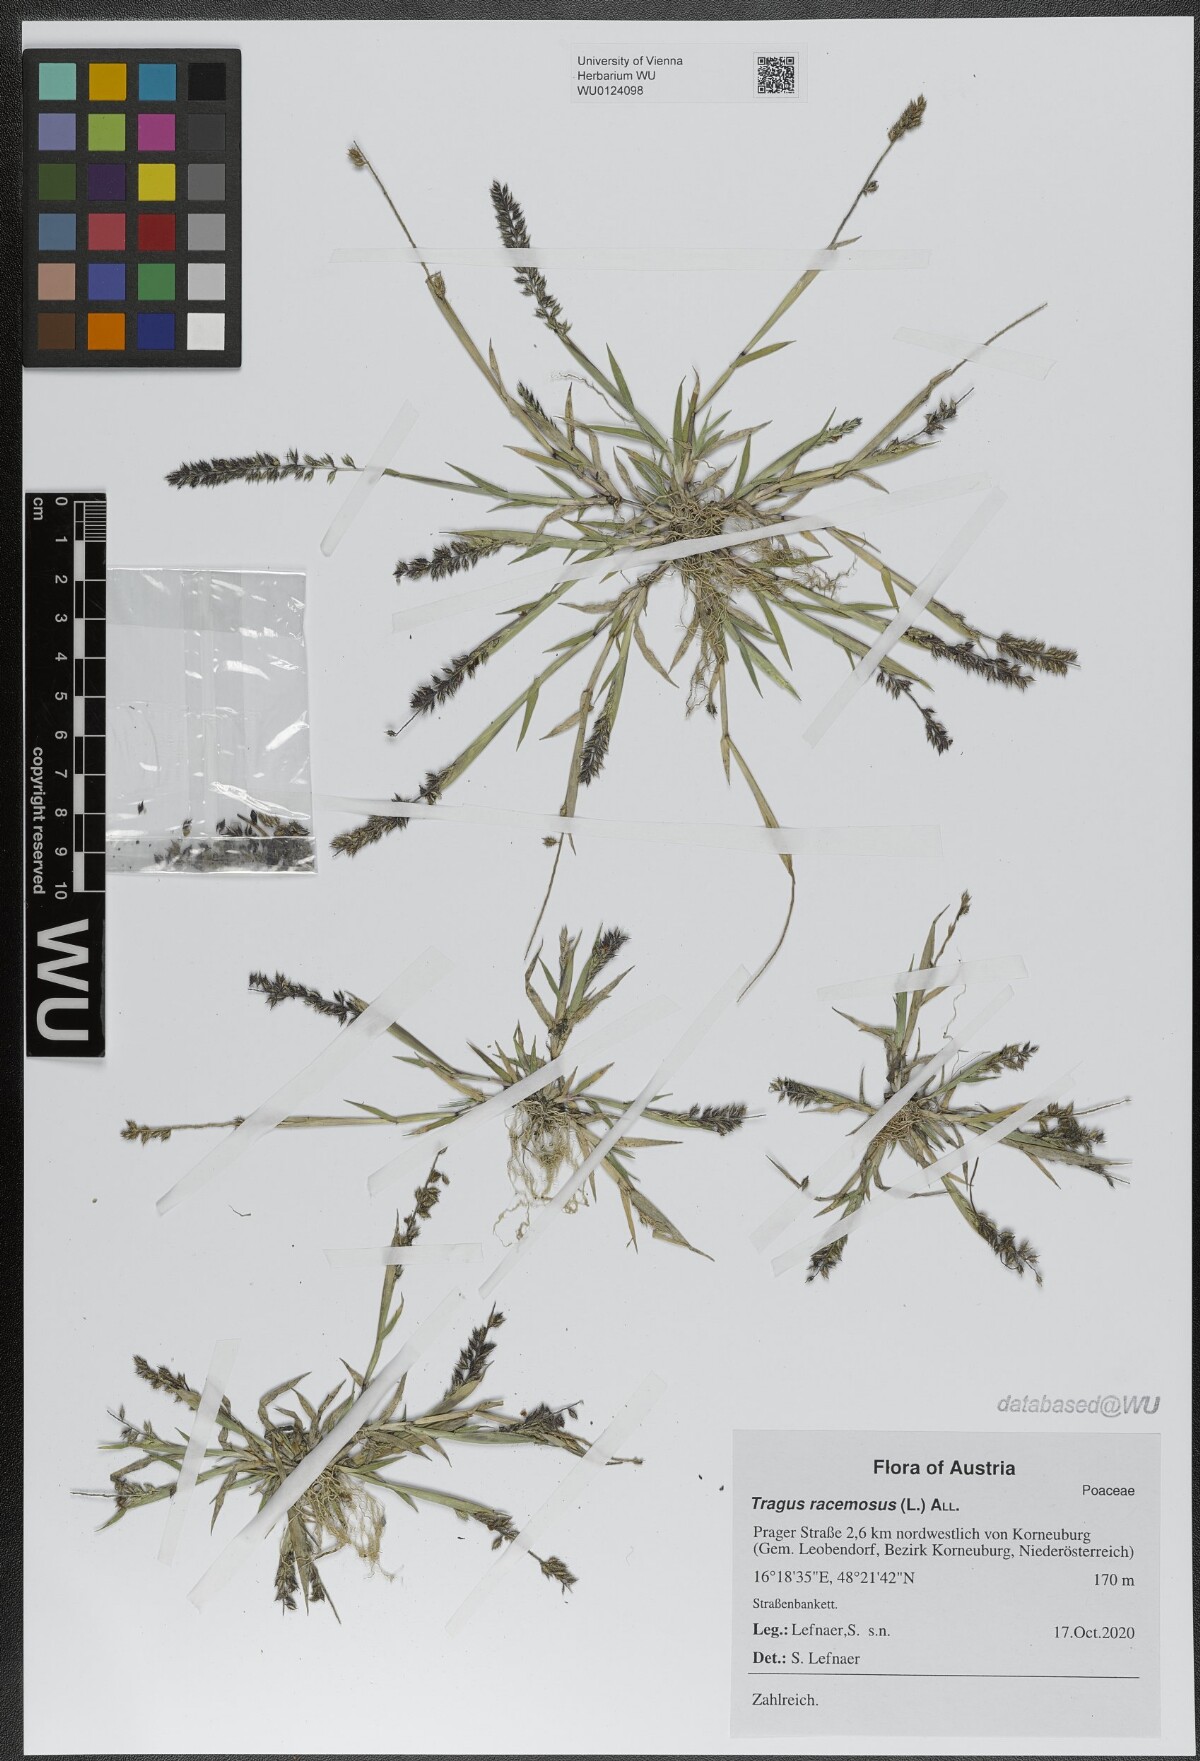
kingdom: Plantae
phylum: Tracheophyta
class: Liliopsida
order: Poales
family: Poaceae
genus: Tragus
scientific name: Tragus racemosus
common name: European bur-grass
